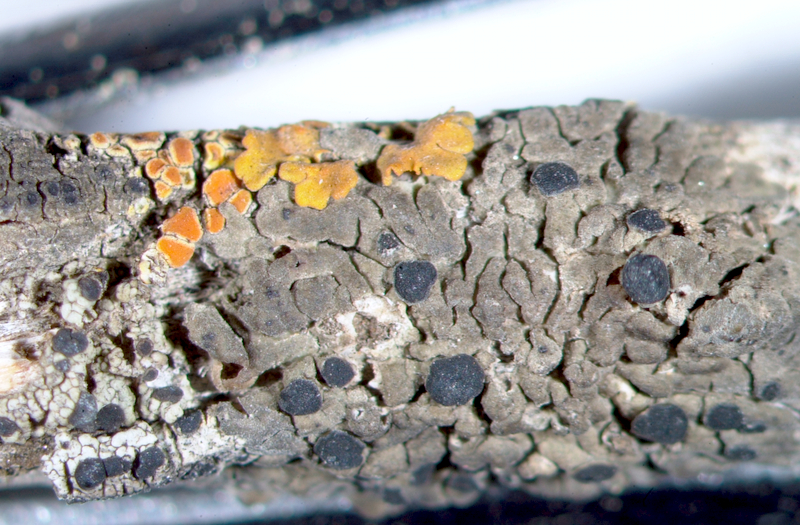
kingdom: Fungi
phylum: Ascomycota
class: Lecanoromycetes
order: Lecanorales
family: Lecanoraceae
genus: Lecidella
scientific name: Lecidella
